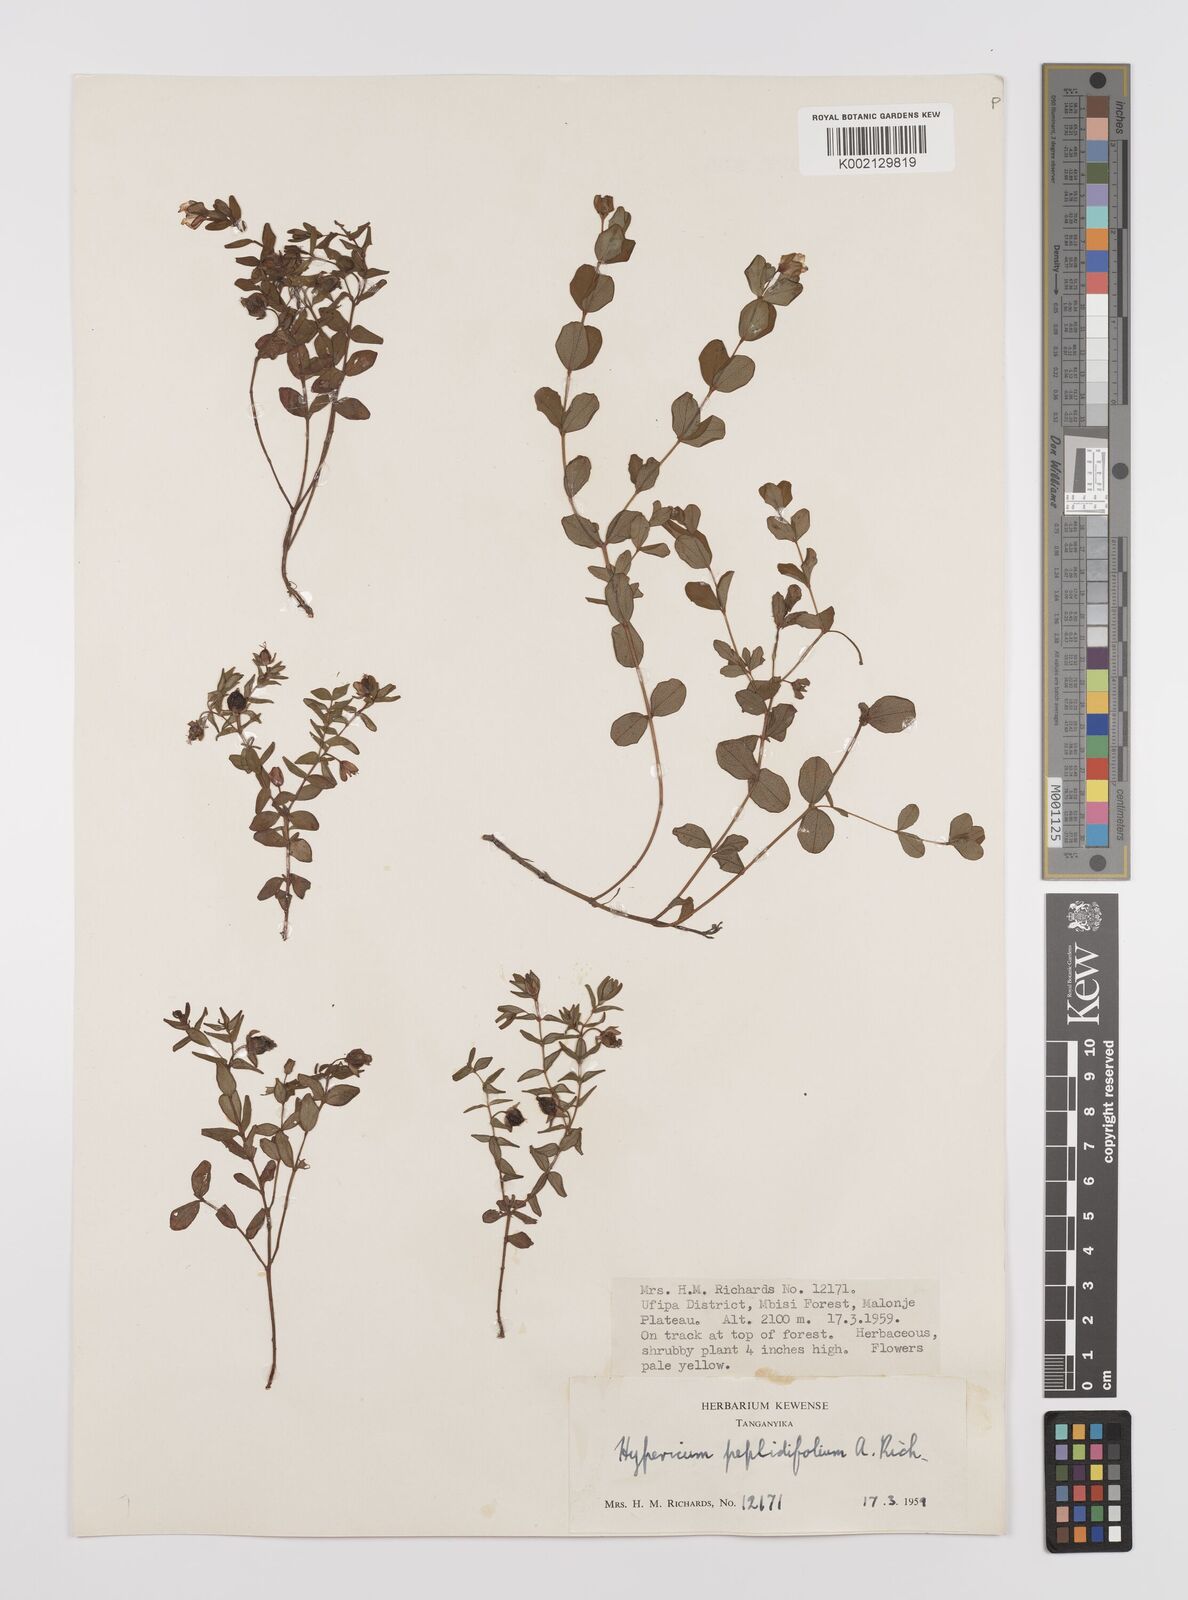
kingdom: Plantae
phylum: Tracheophyta
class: Magnoliopsida
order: Malpighiales
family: Hypericaceae
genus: Hypericum
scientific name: Hypericum peplidifolium
